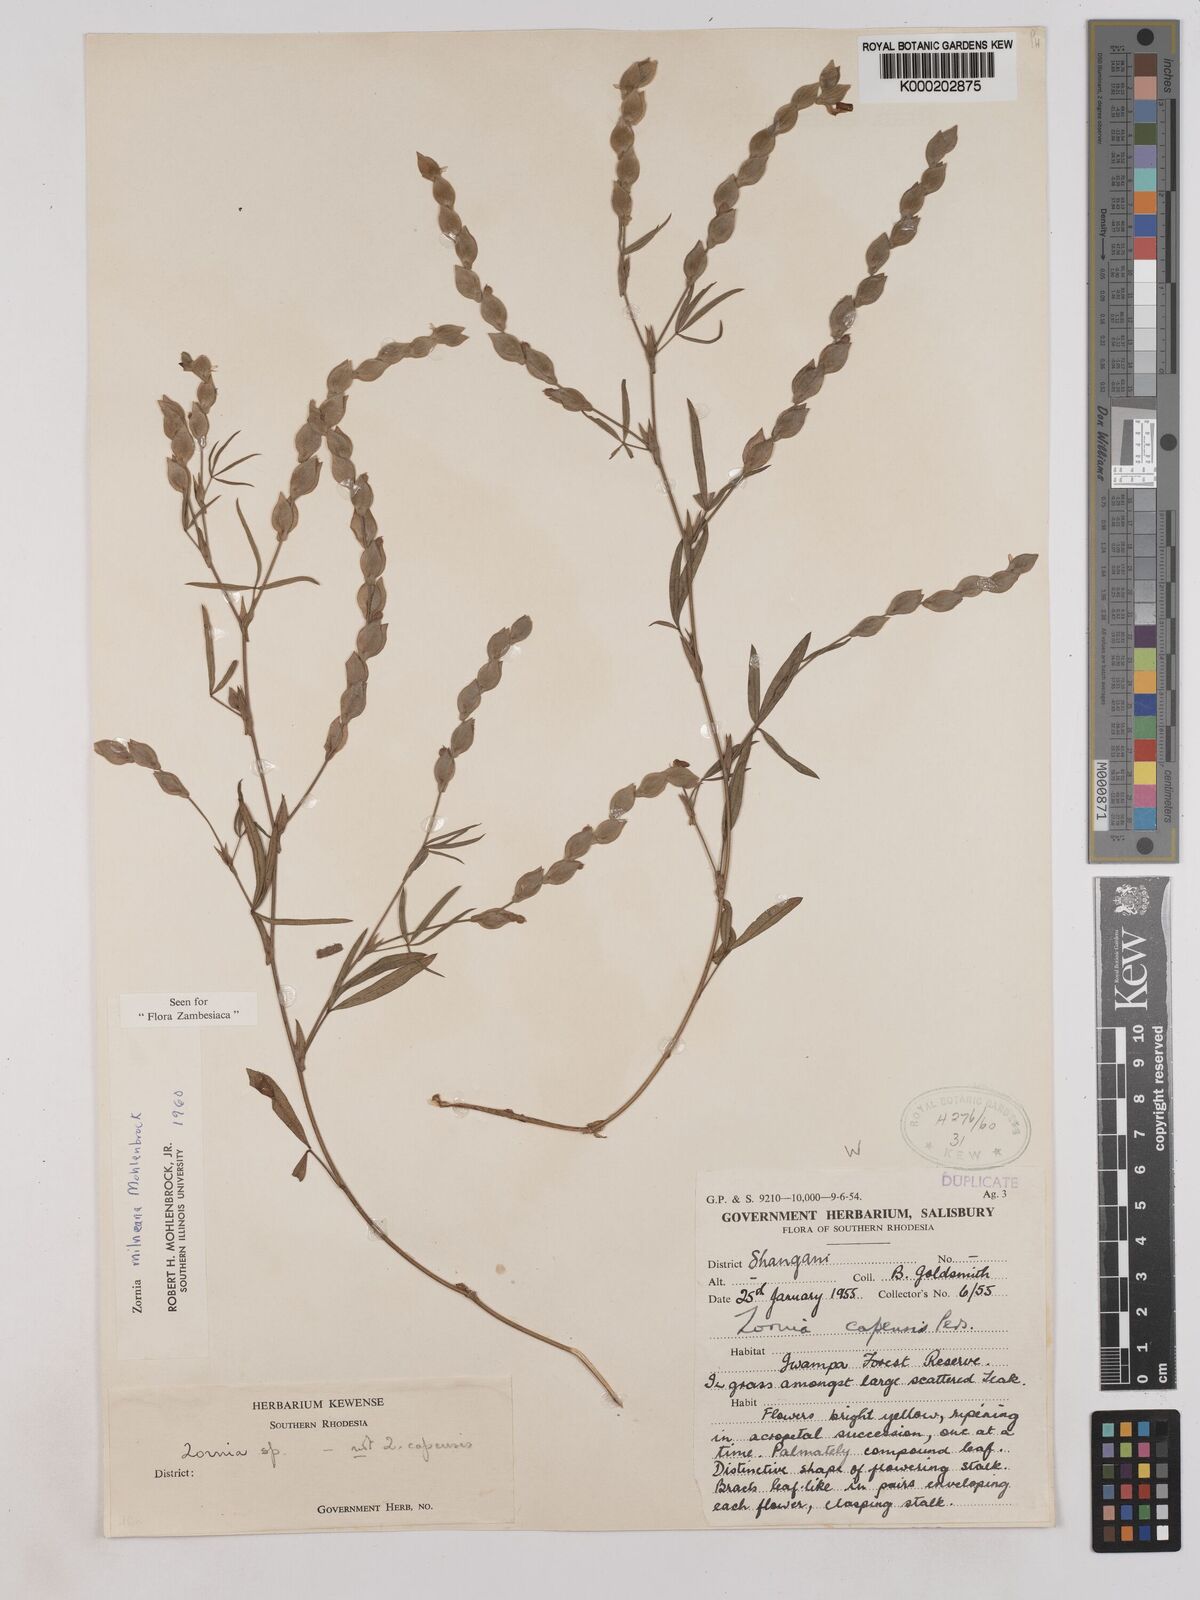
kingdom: Plantae
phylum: Tracheophyta
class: Magnoliopsida
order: Fabales
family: Fabaceae
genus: Zornia
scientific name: Zornia milneana
